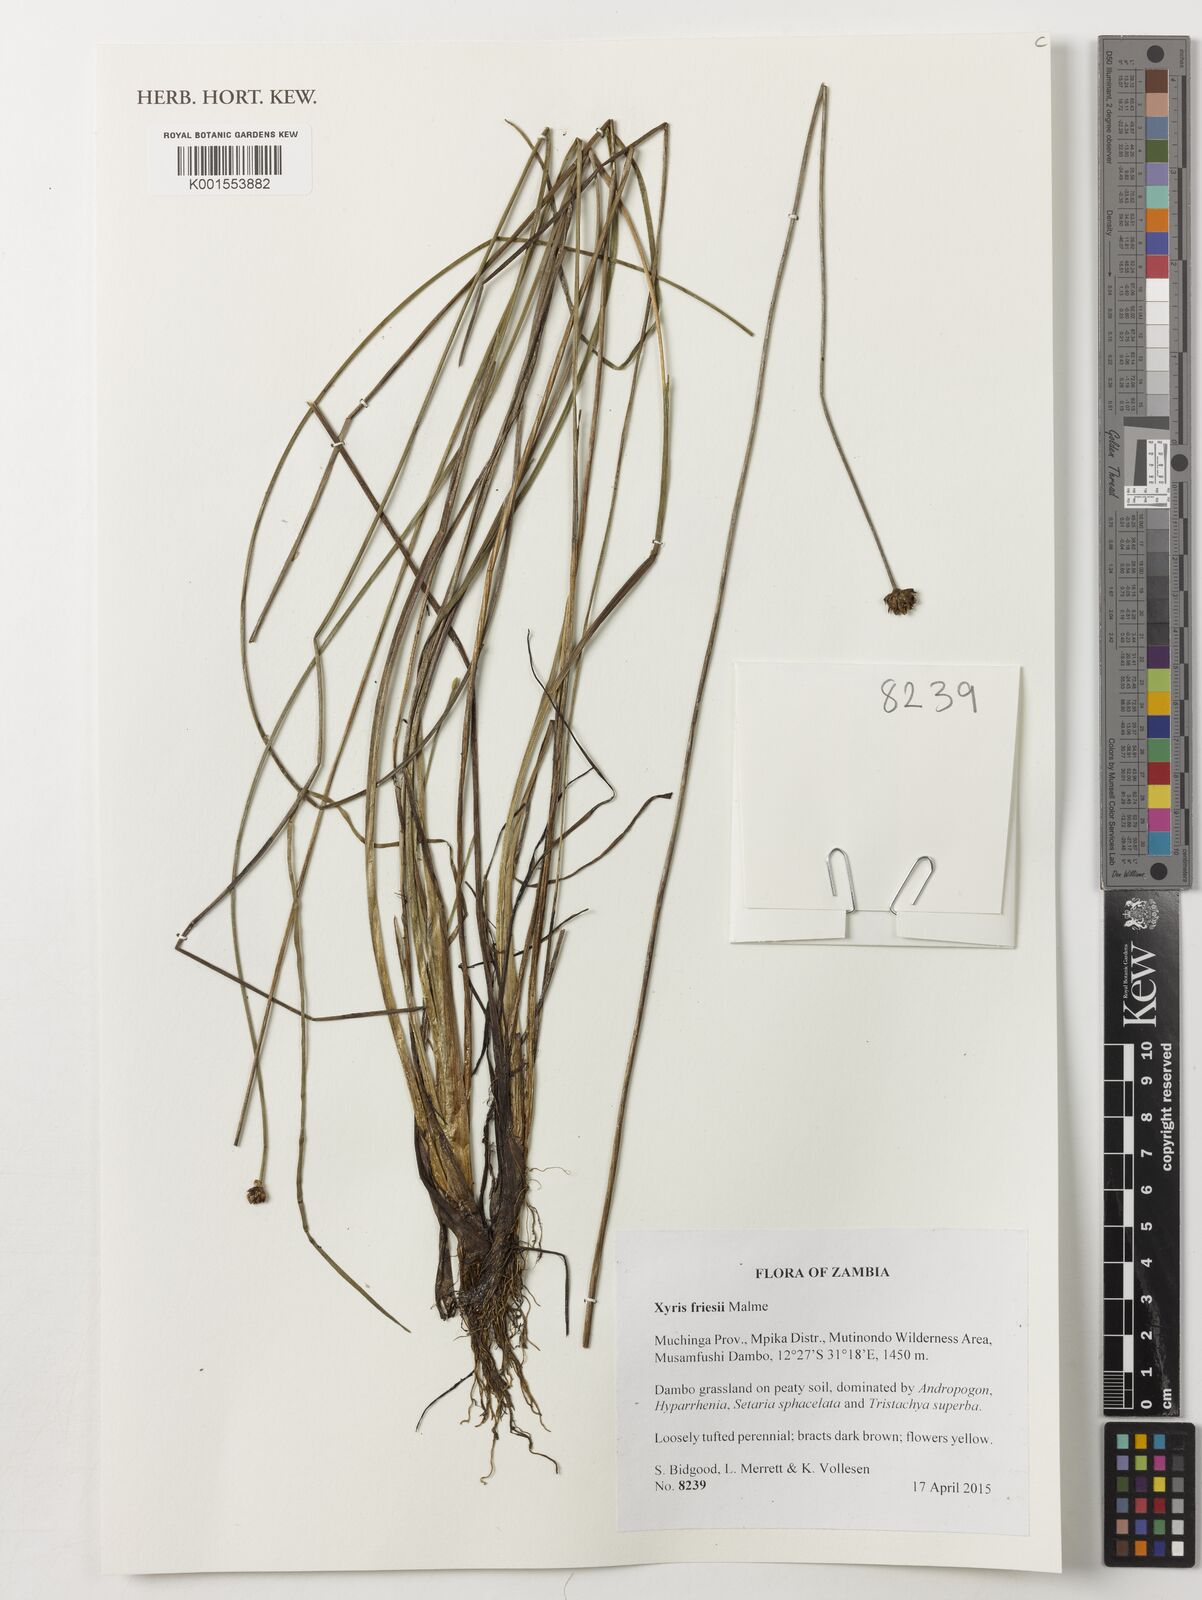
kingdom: Plantae
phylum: Tracheophyta
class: Liliopsida
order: Poales
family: Xyridaceae
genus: Xyris
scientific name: Xyris friesii
